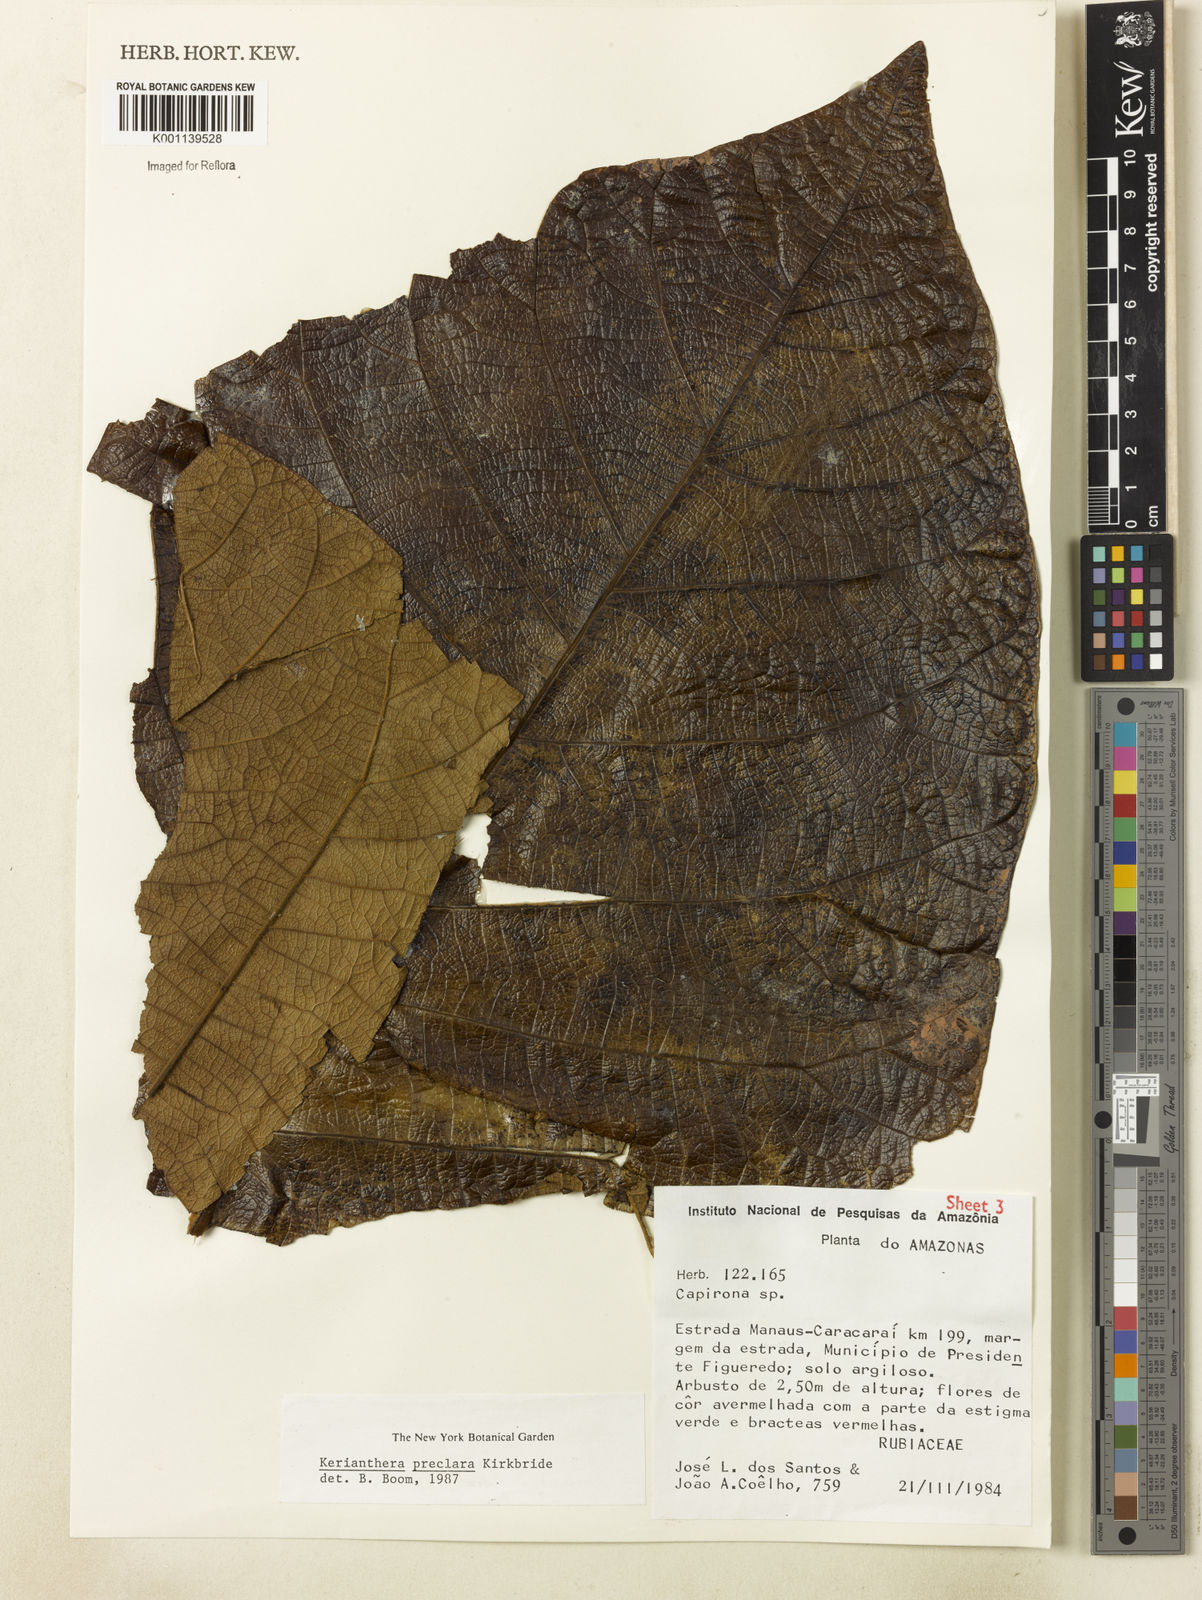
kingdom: Plantae
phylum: Tracheophyta
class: Magnoliopsida
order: Gentianales
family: Rubiaceae
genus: Kerianthera
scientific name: Kerianthera preclara
